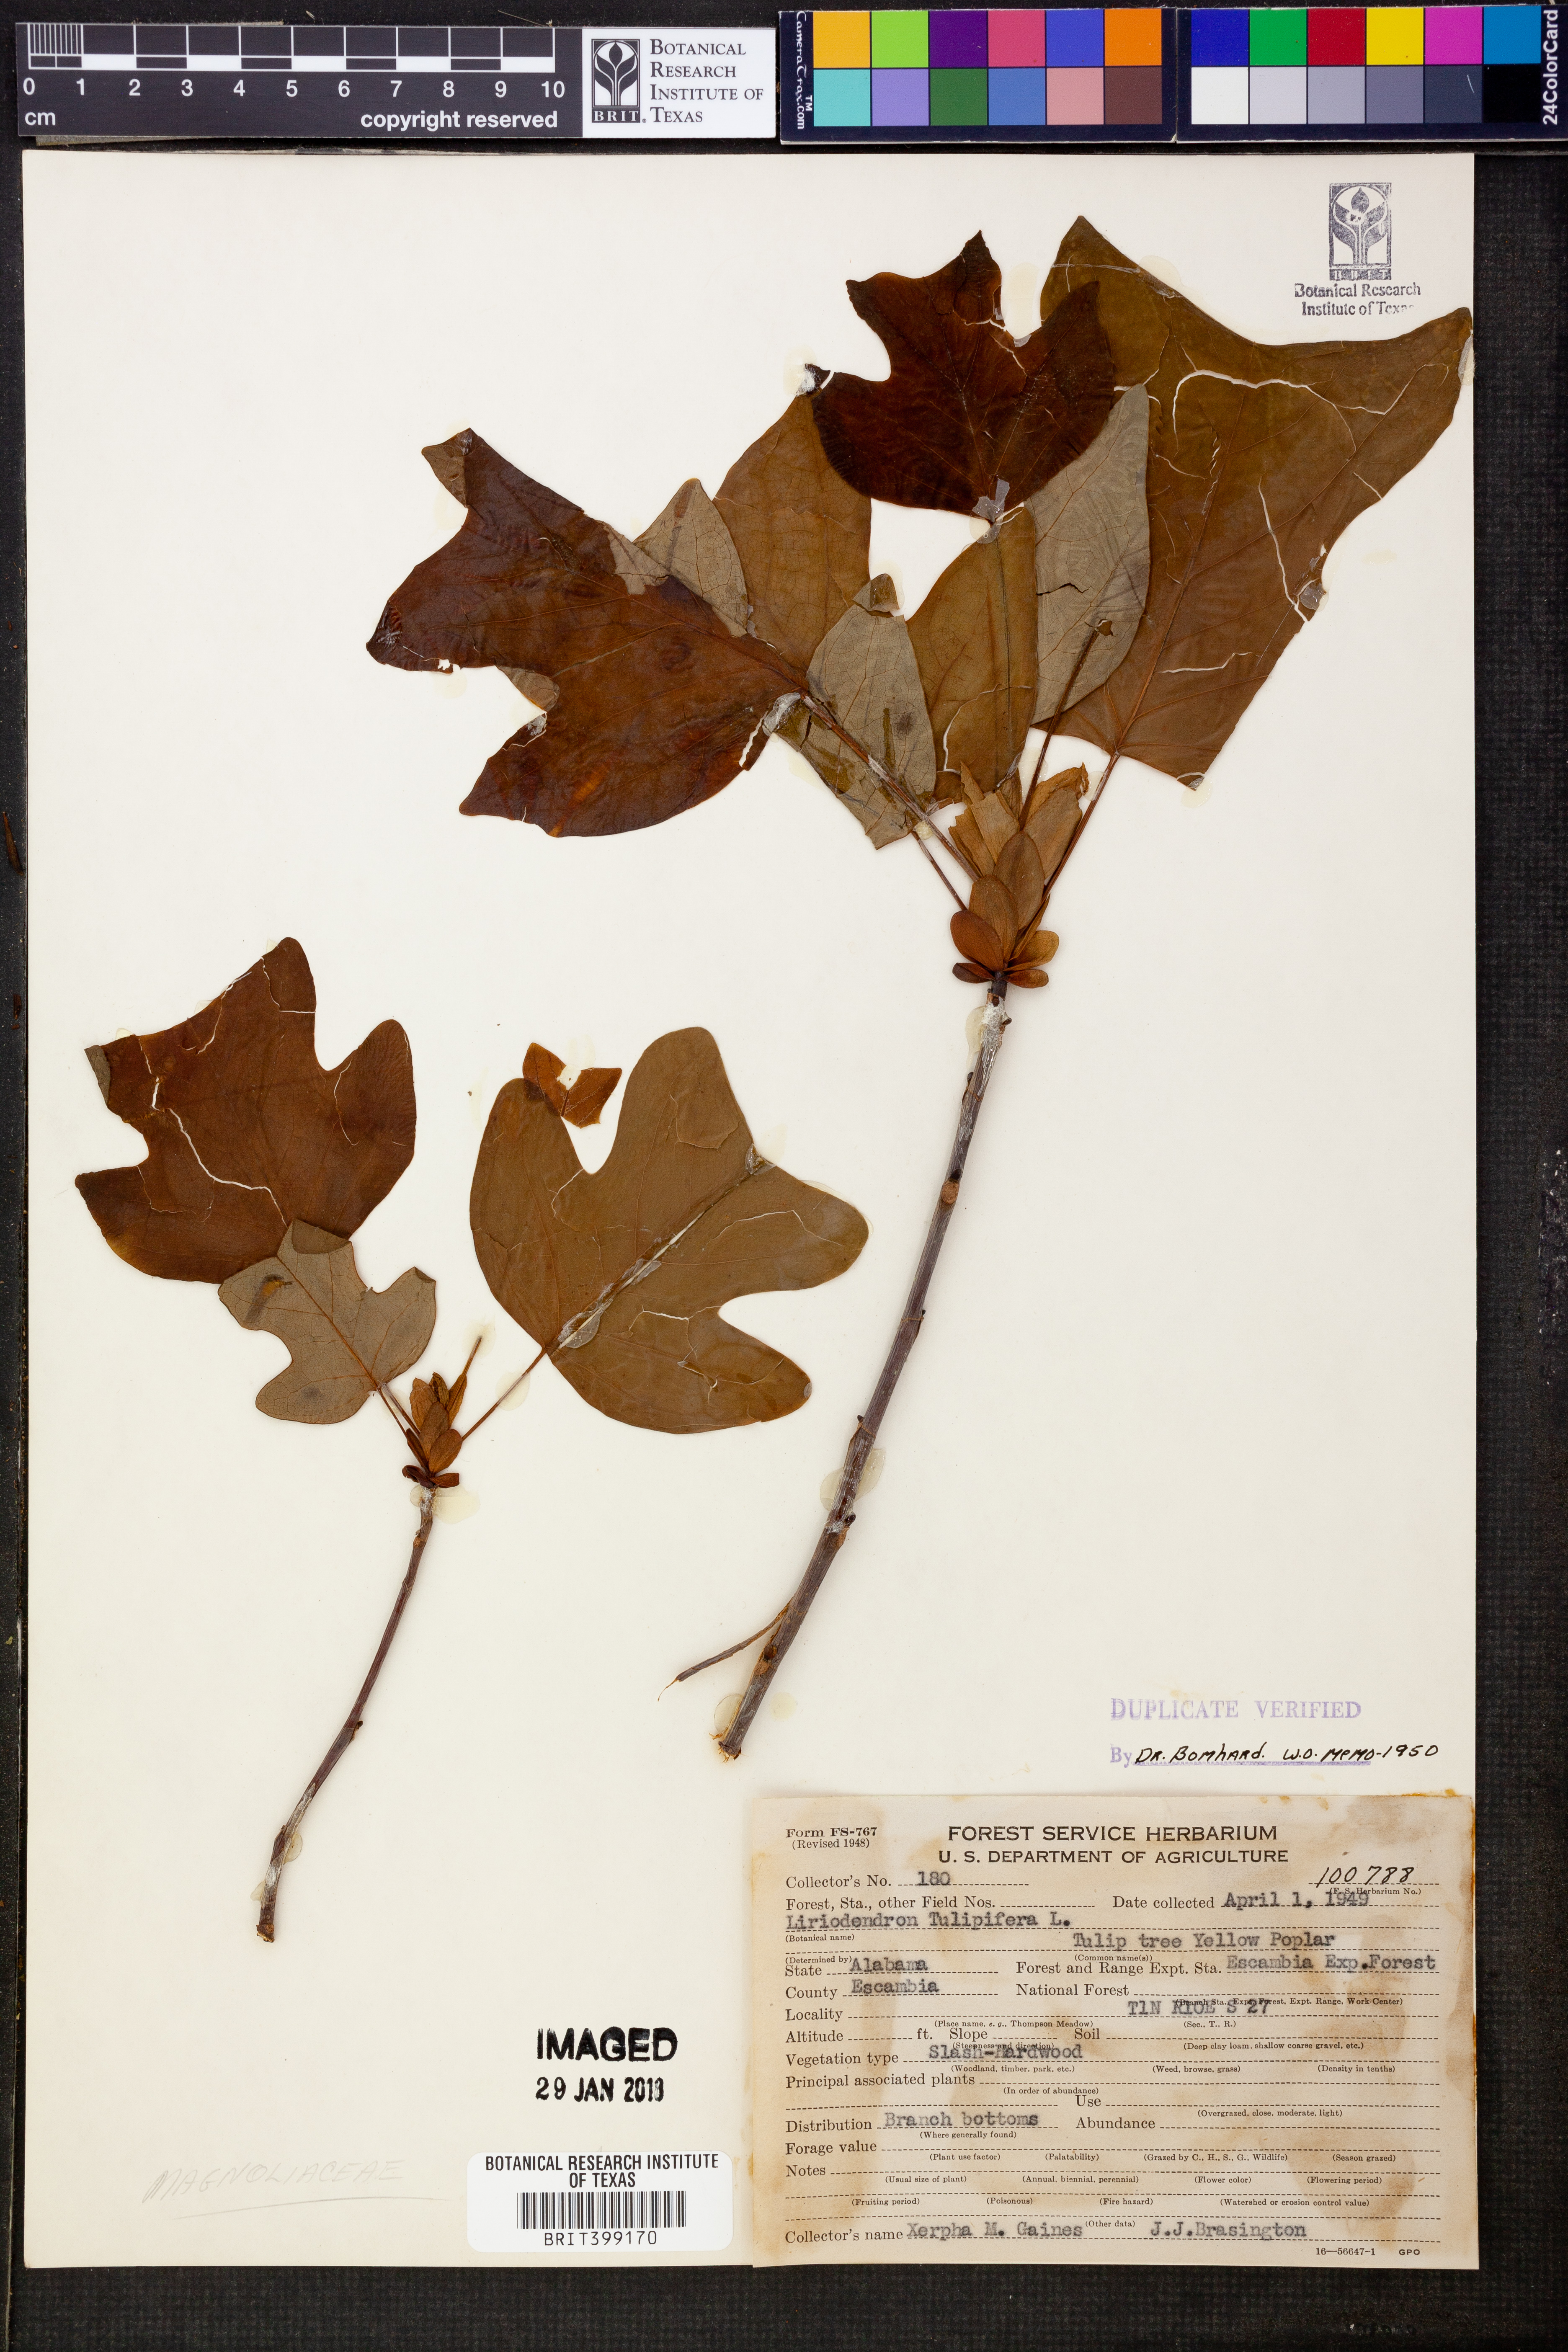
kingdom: Plantae
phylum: Tracheophyta
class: Magnoliopsida
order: Magnoliales
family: Magnoliaceae
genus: Liriodendron
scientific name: Liriodendron tulipifera
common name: Tulip tree
